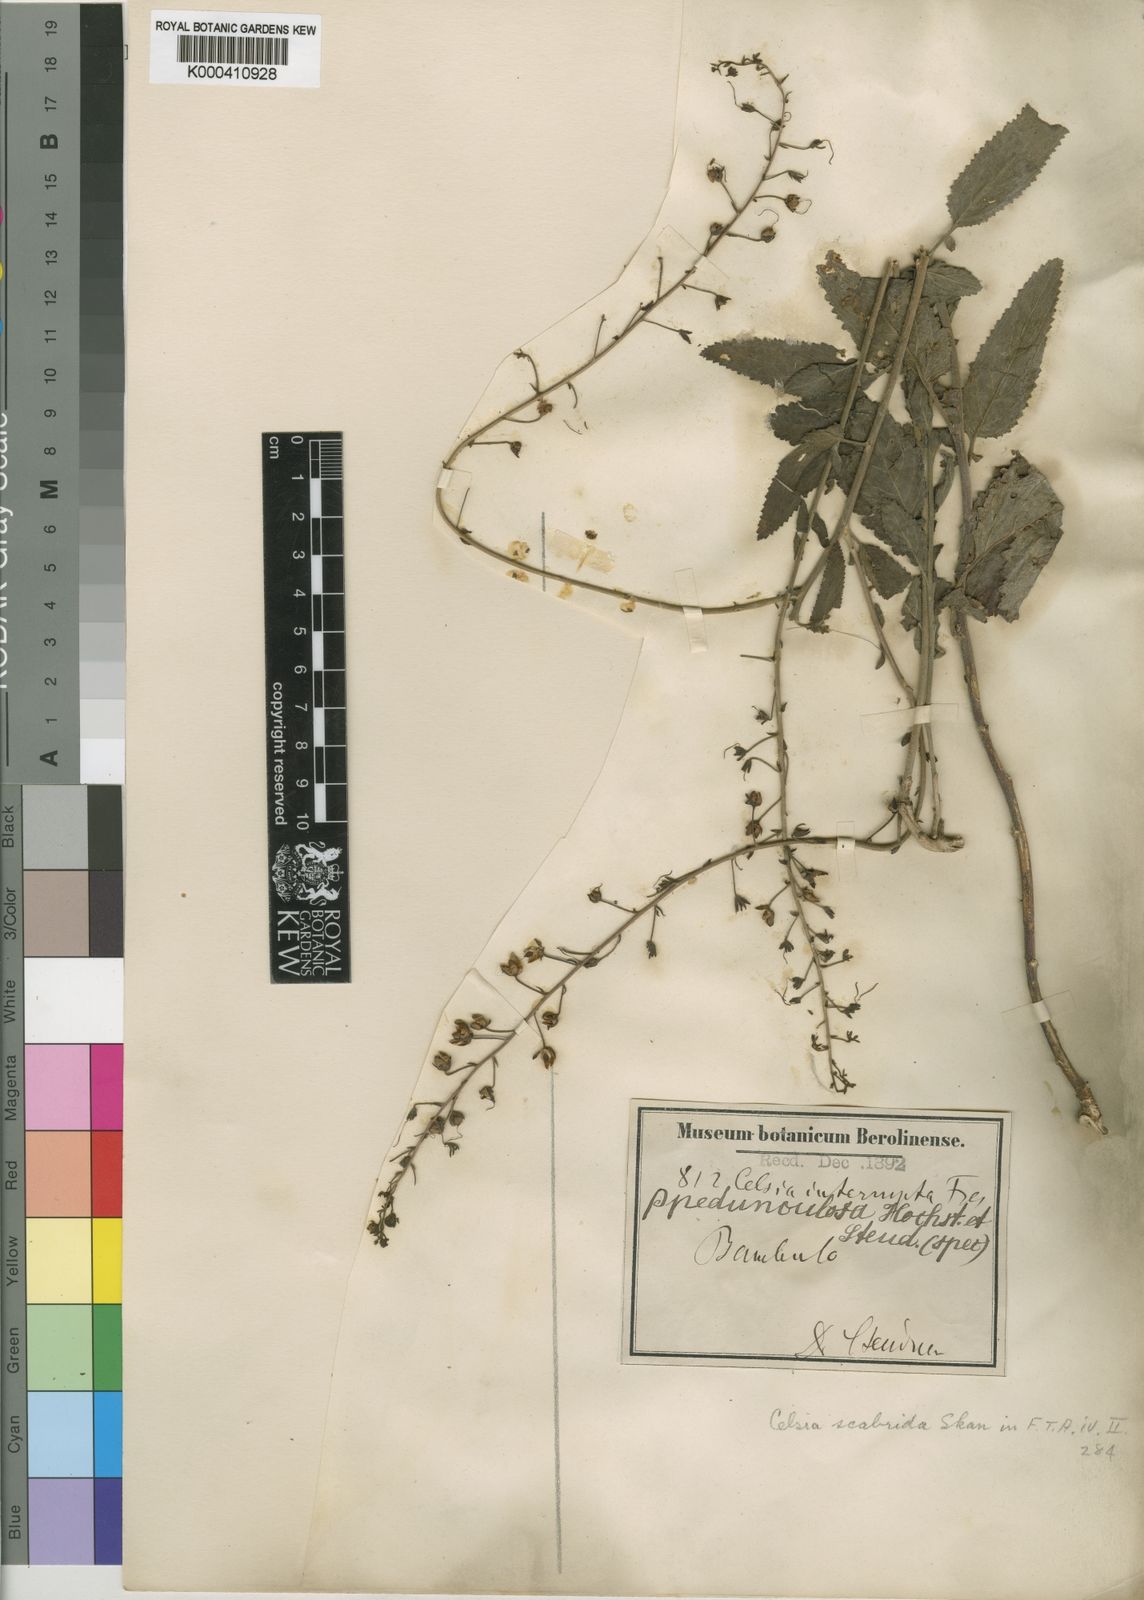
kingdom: Plantae
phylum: Tracheophyta
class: Magnoliopsida
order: Lamiales
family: Scrophulariaceae
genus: Verbascum
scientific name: Verbascum scabridum
